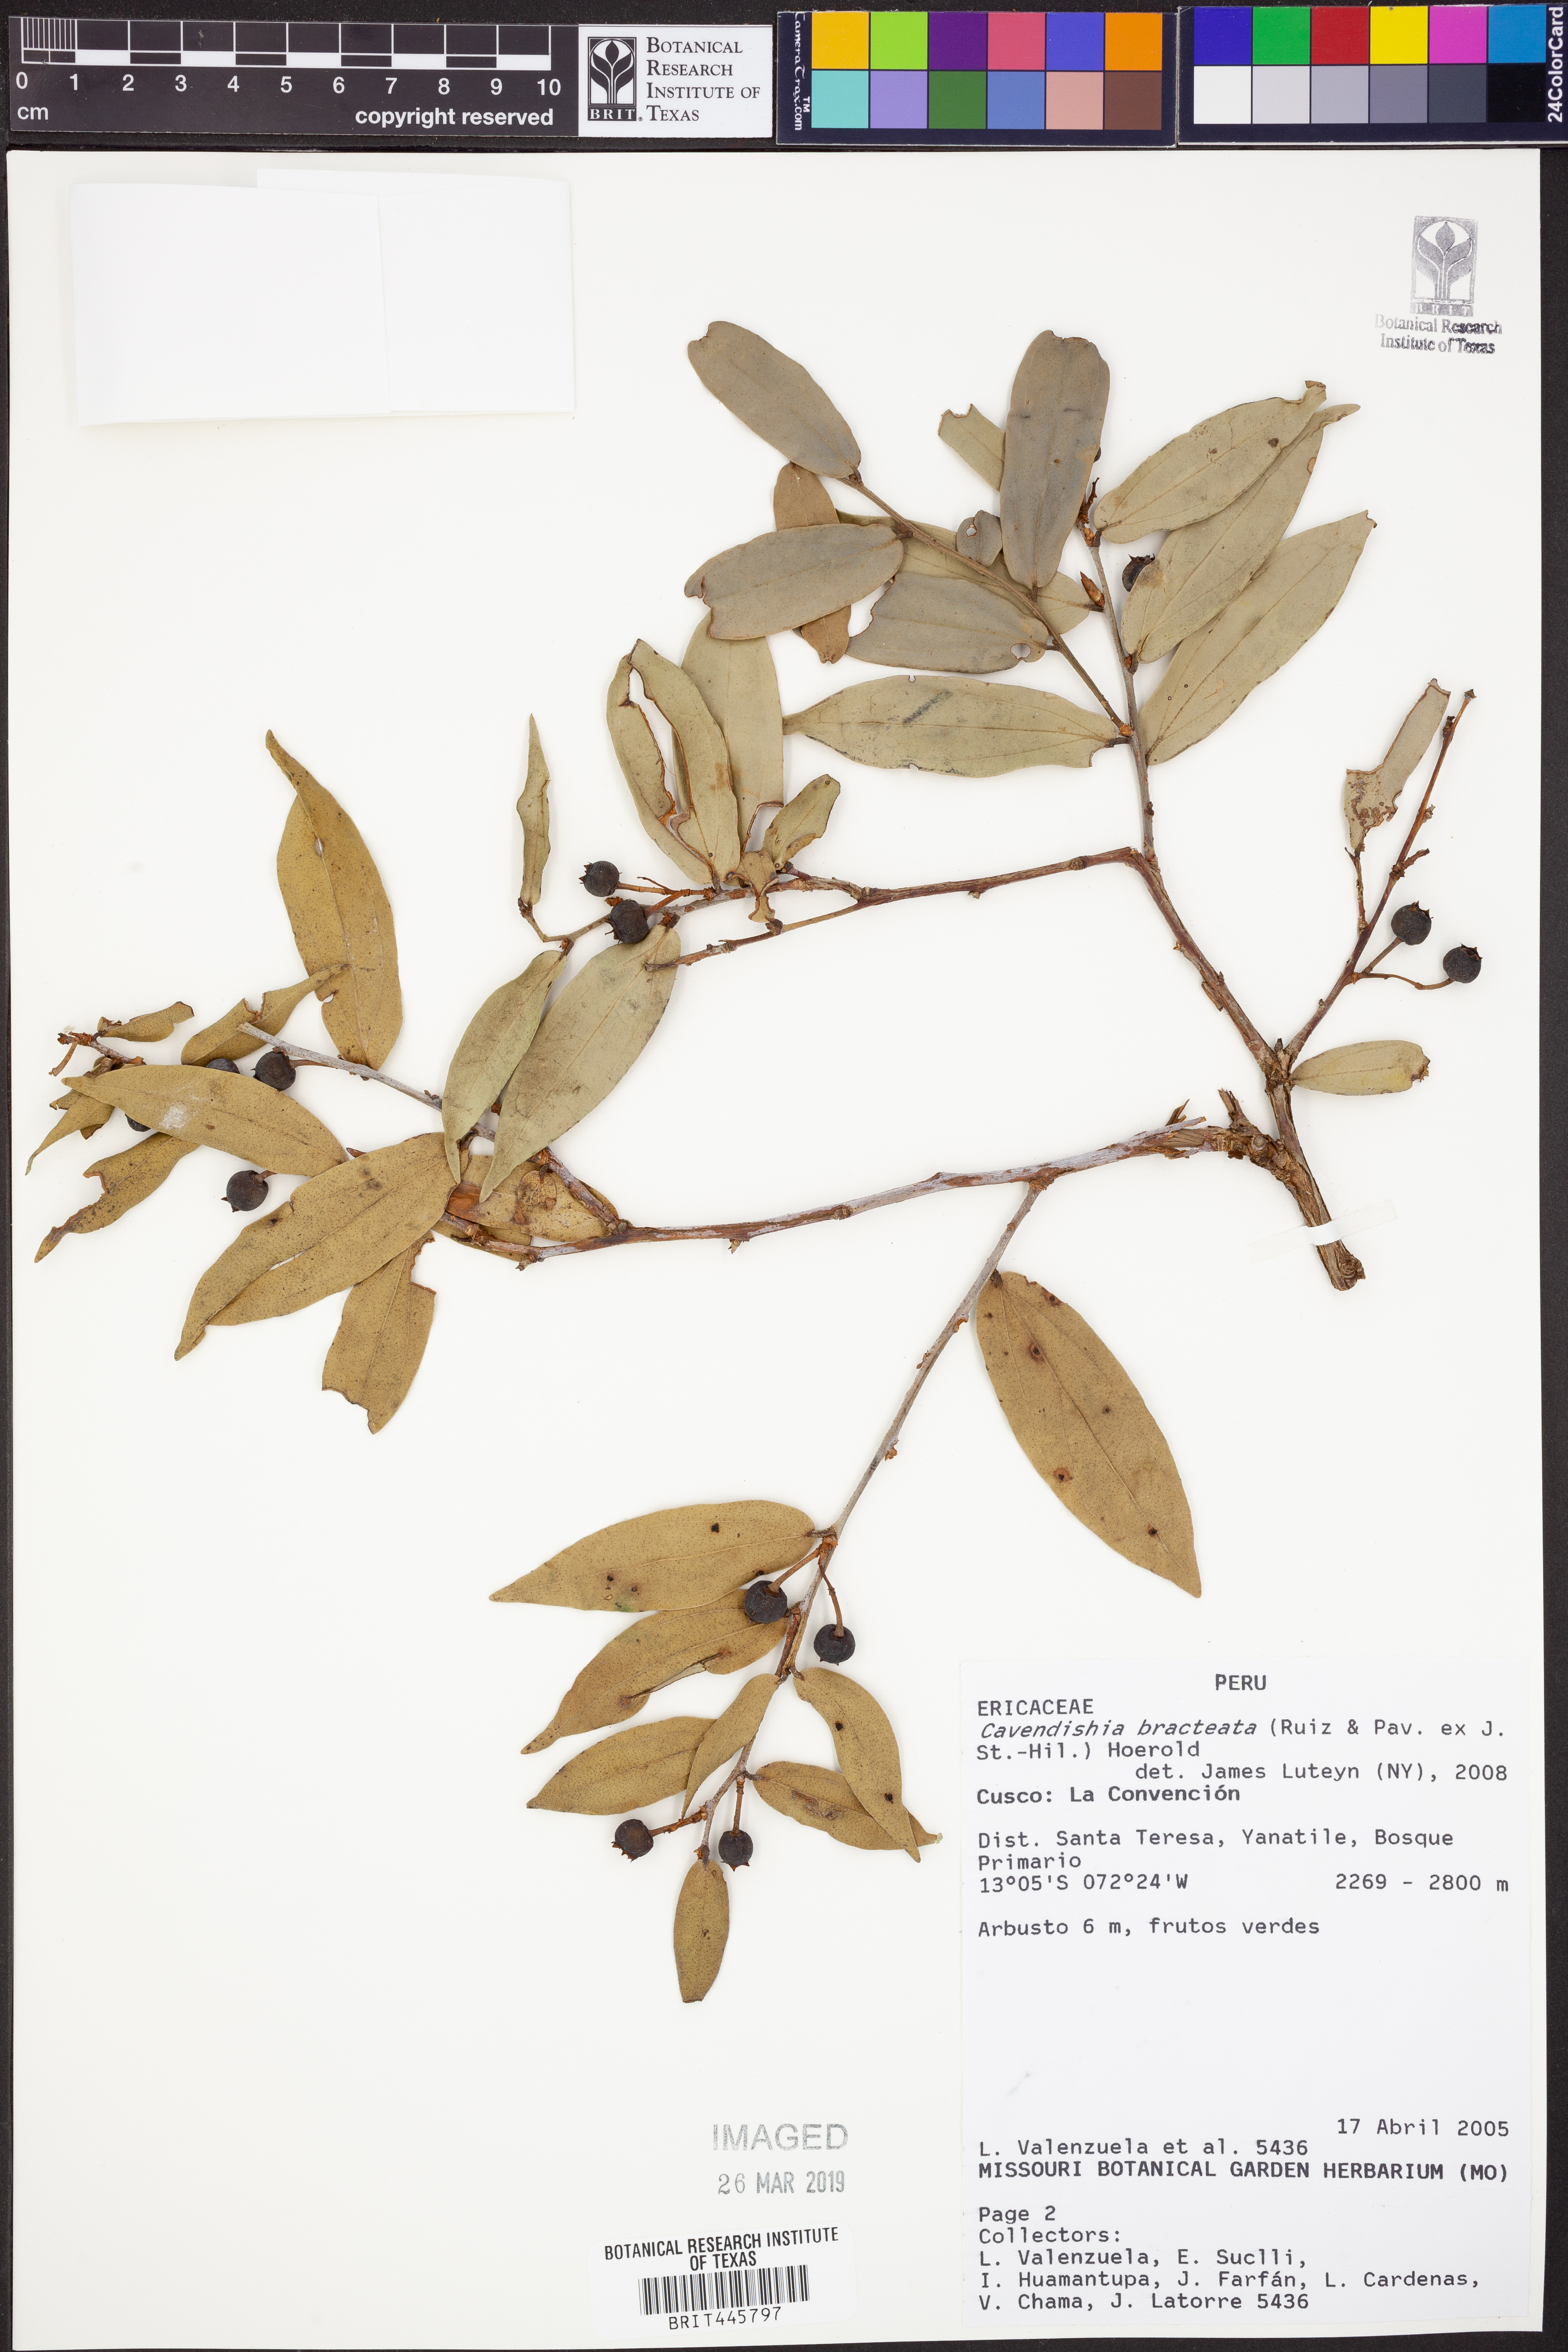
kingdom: Plantae
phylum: Tracheophyta
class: Magnoliopsida
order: Ericales
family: Ericaceae
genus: Cavendishia
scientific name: Cavendishia bracteata
